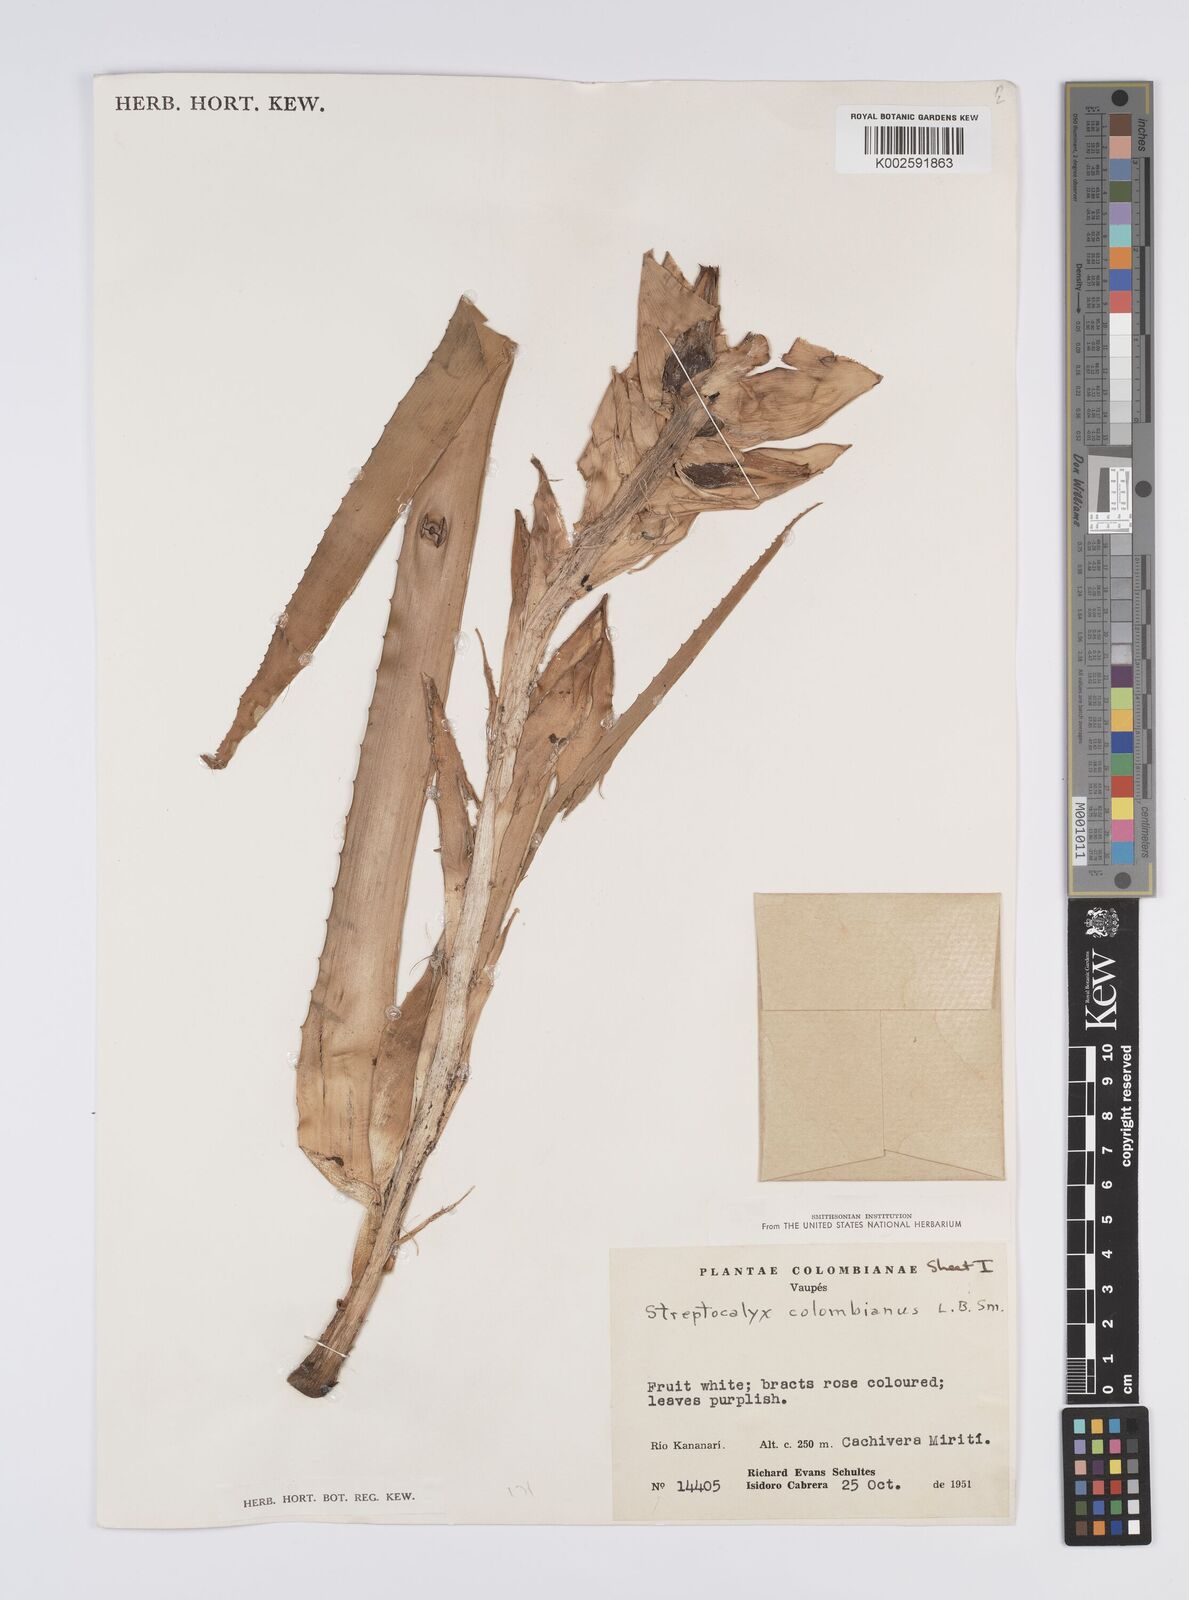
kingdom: Plantae
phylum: Tracheophyta
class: Liliopsida
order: Poales
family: Bromeliaceae
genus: Aechmea
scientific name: Aechmea colombiana
